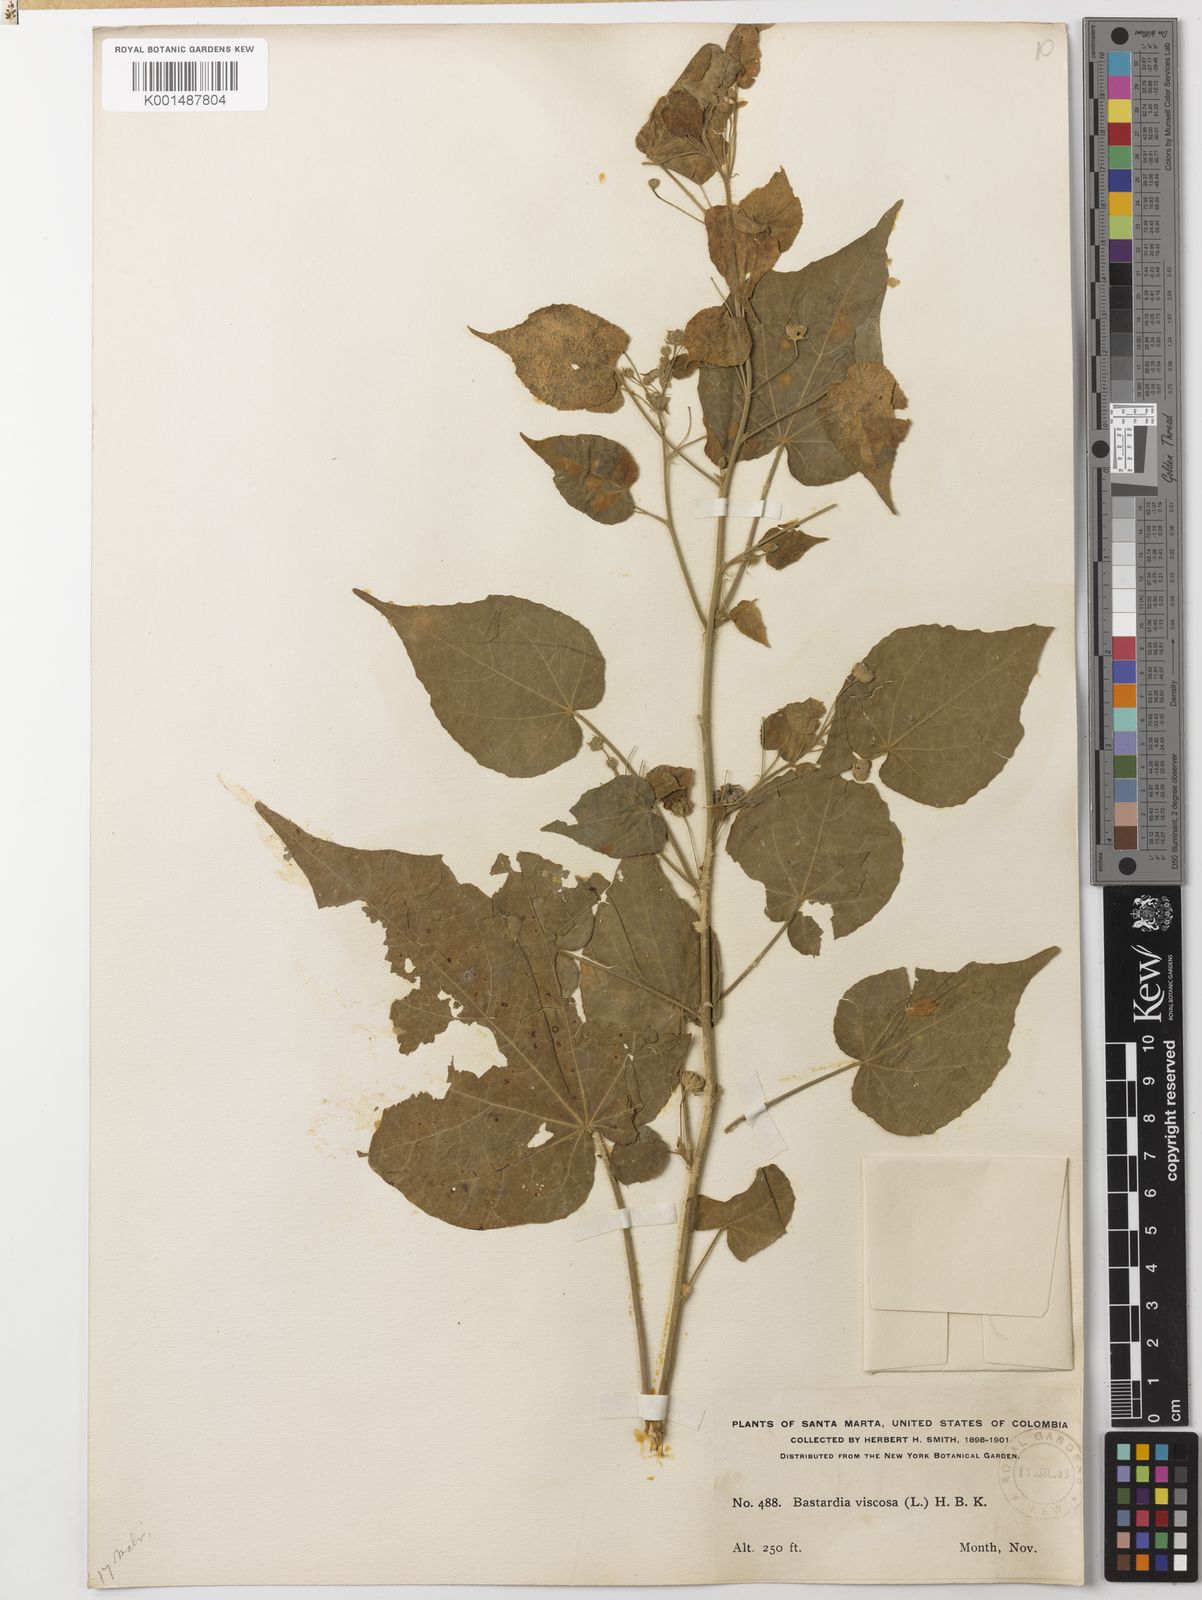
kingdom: Plantae
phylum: Tracheophyta
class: Magnoliopsida
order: Malvales
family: Malvaceae
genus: Abutilon
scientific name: Abutilon viscosum
